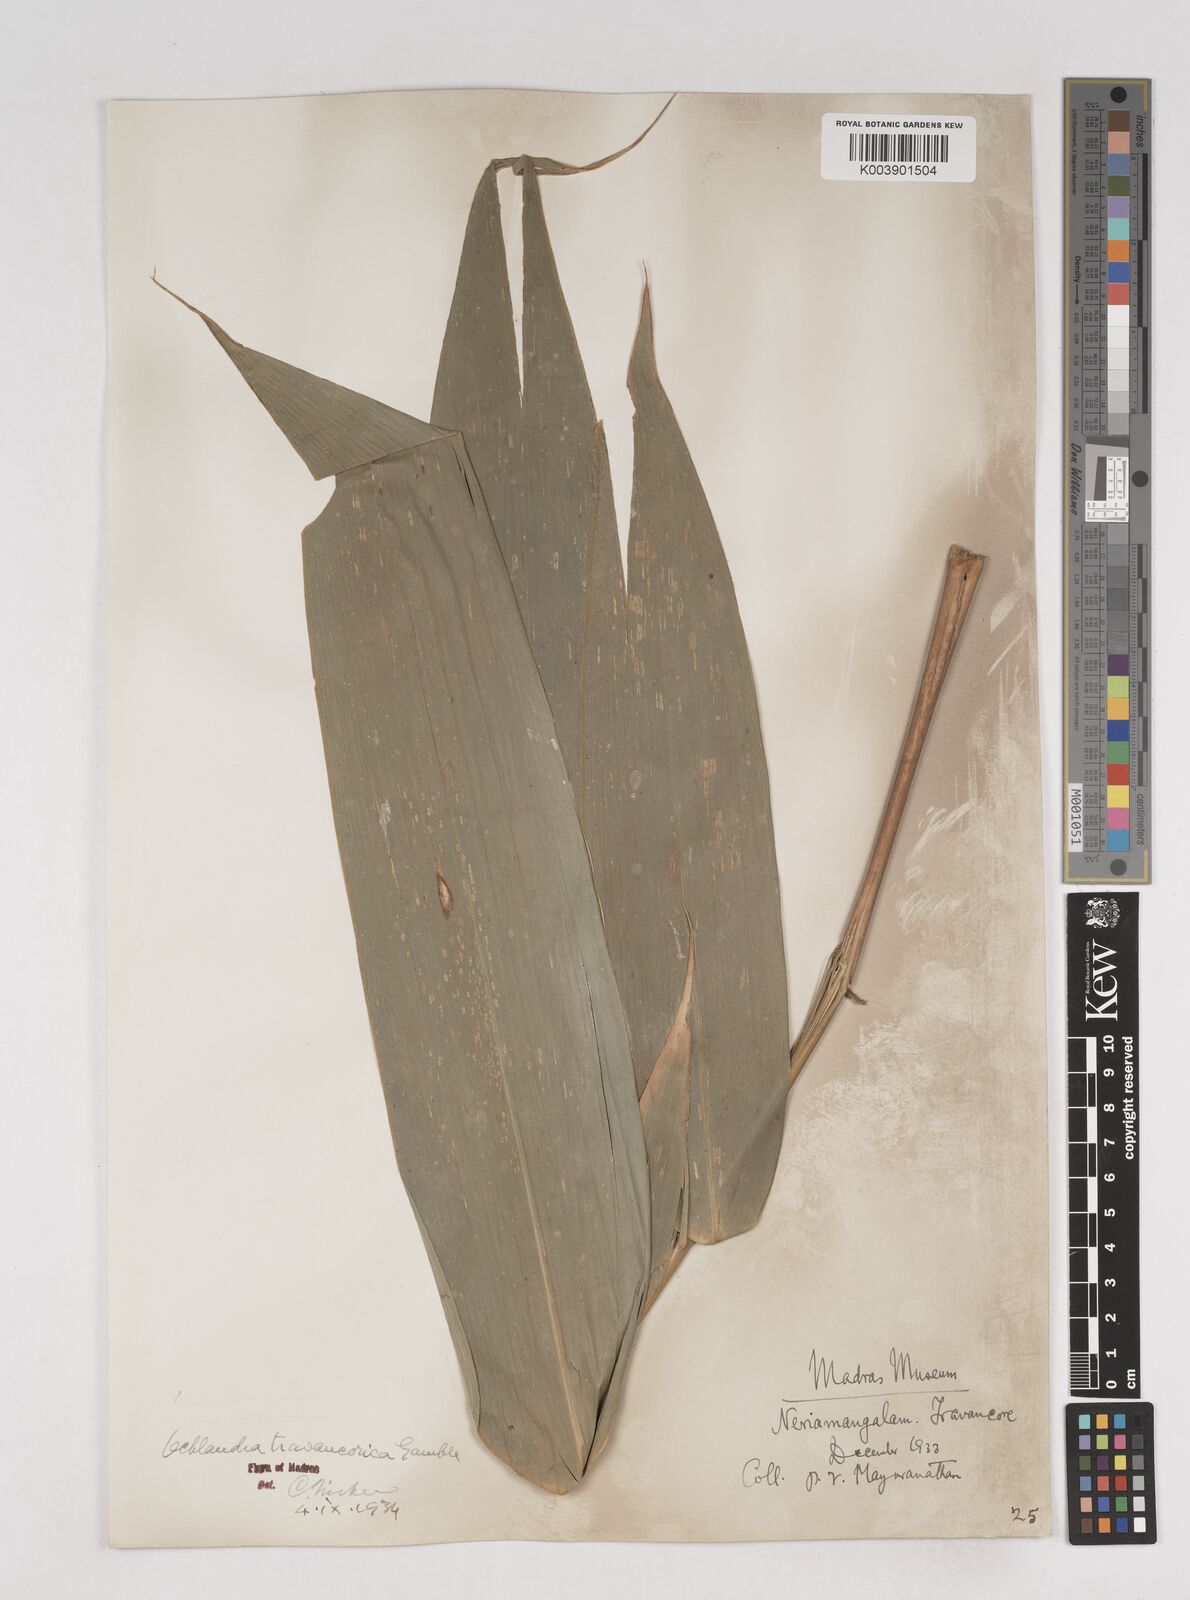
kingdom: Plantae
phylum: Tracheophyta
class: Liliopsida
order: Poales
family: Poaceae
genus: Ochlandra
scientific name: Ochlandra travancorica
